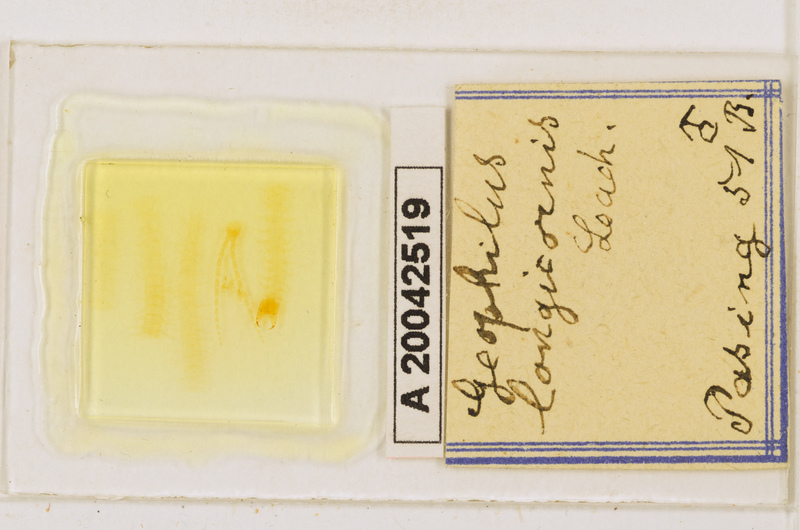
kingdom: Animalia
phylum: Arthropoda
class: Chilopoda
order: Geophilomorpha
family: Geophilidae
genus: Geophilus
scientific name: Geophilus flavus
